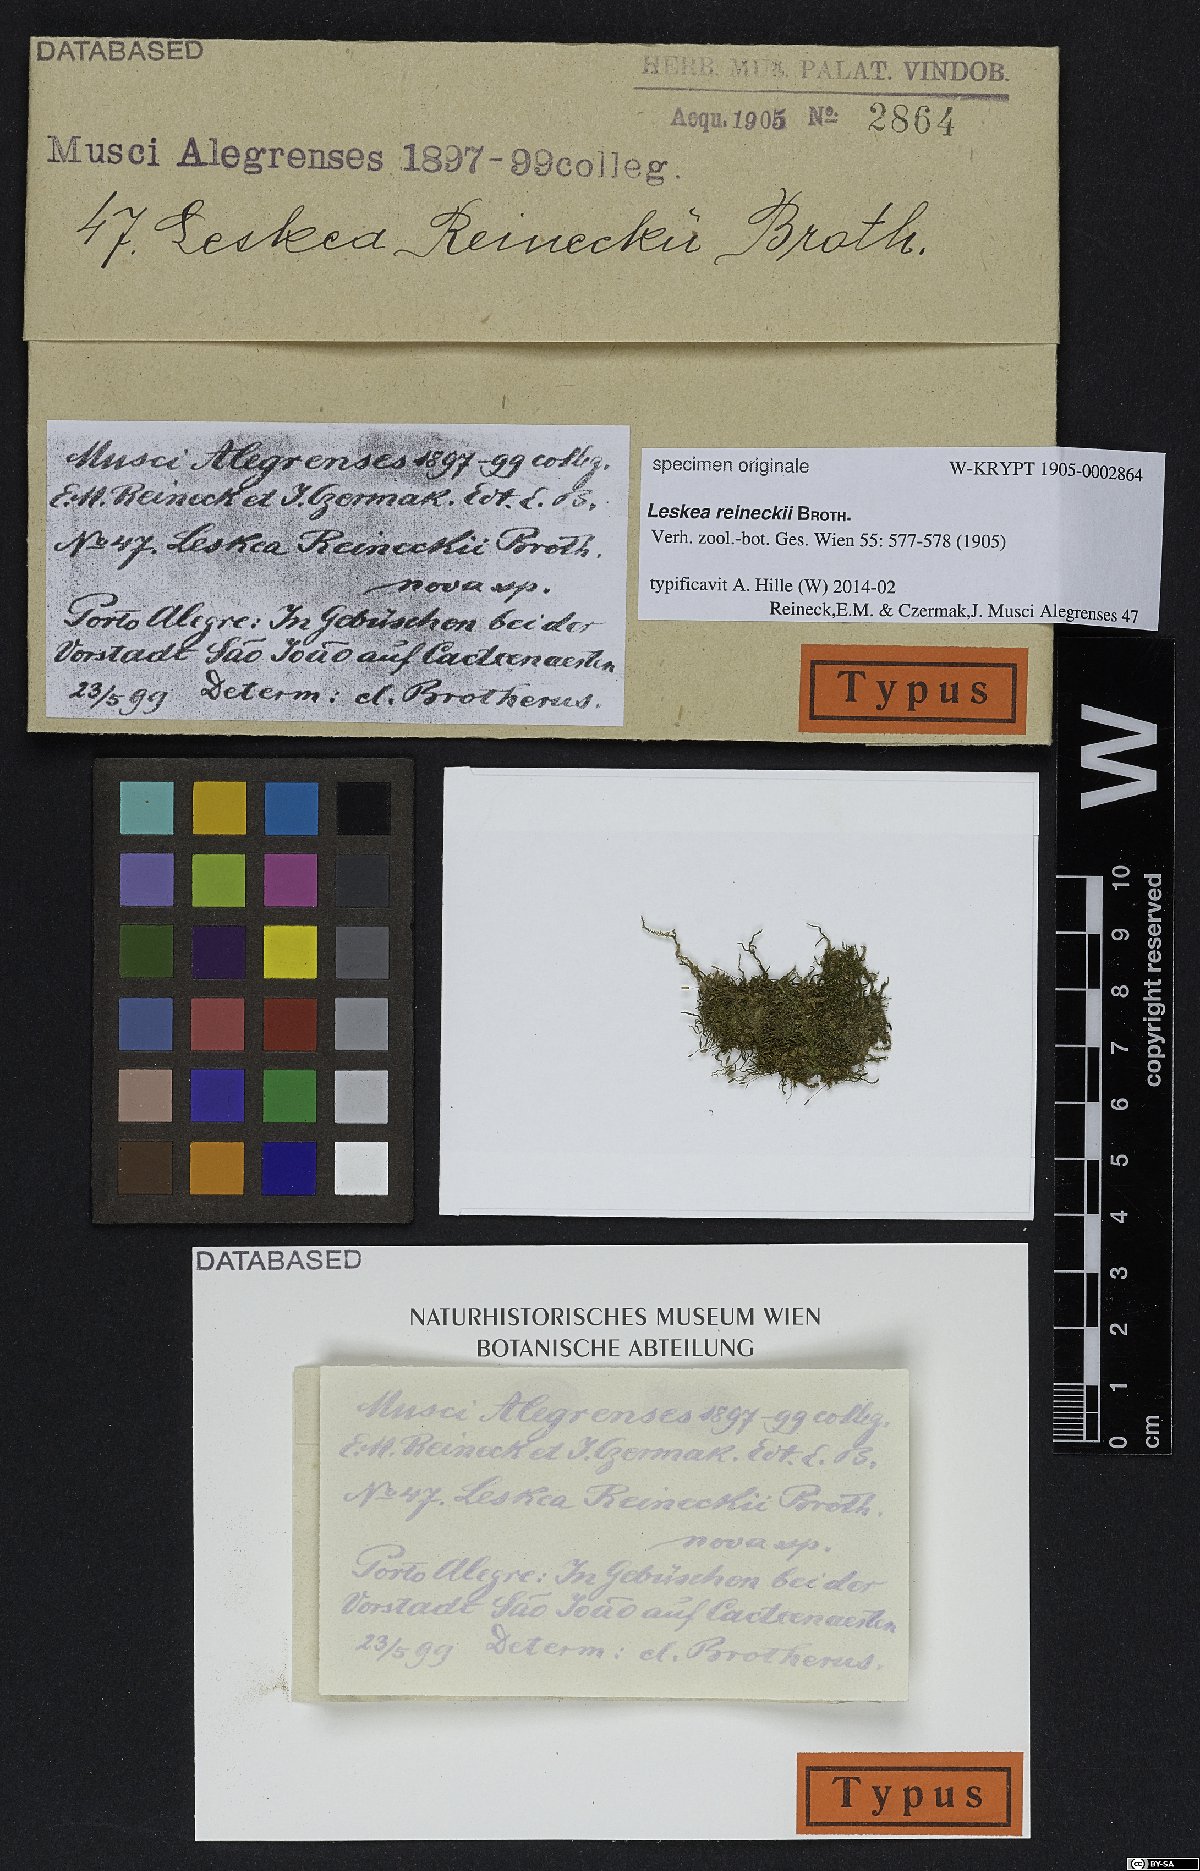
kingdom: Plantae
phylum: Bryophyta
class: Bryopsida
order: Hypnales
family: Leskeaceae
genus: Leskea
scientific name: Leskea reineckii
